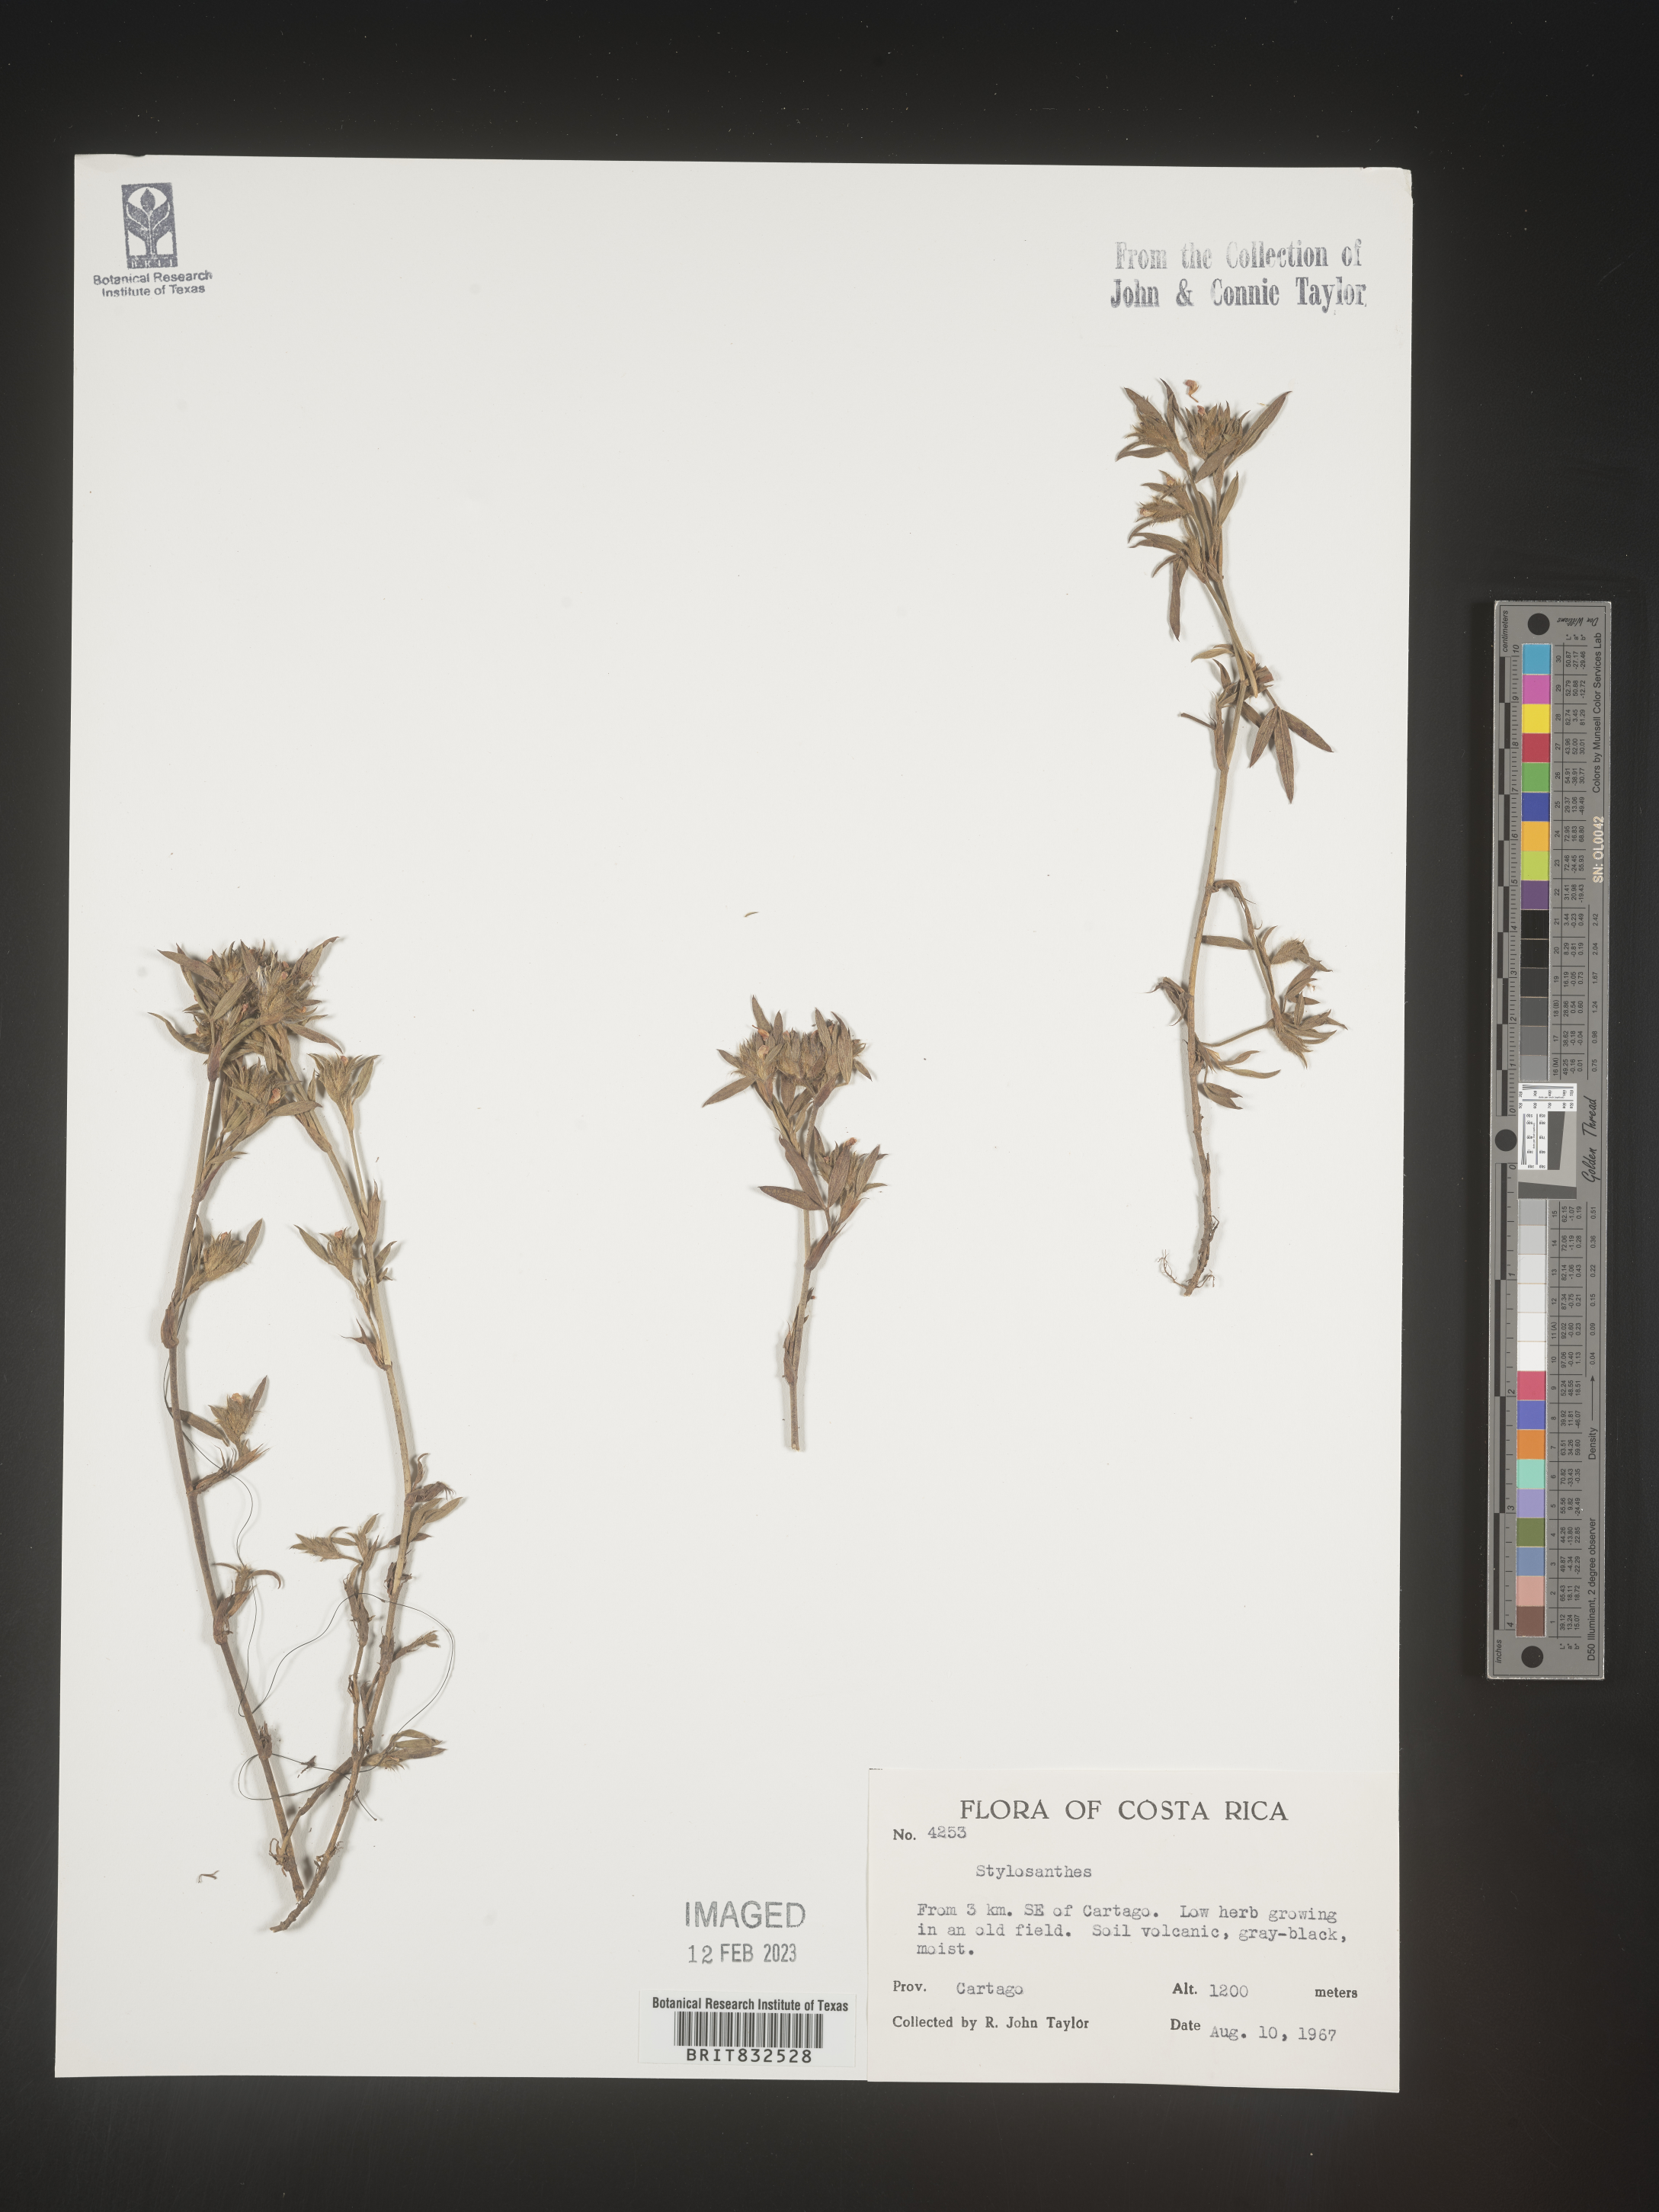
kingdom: Plantae
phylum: Tracheophyta
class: Magnoliopsida
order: Fabales
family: Fabaceae
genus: Stylosanthes
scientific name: Stylosanthes
